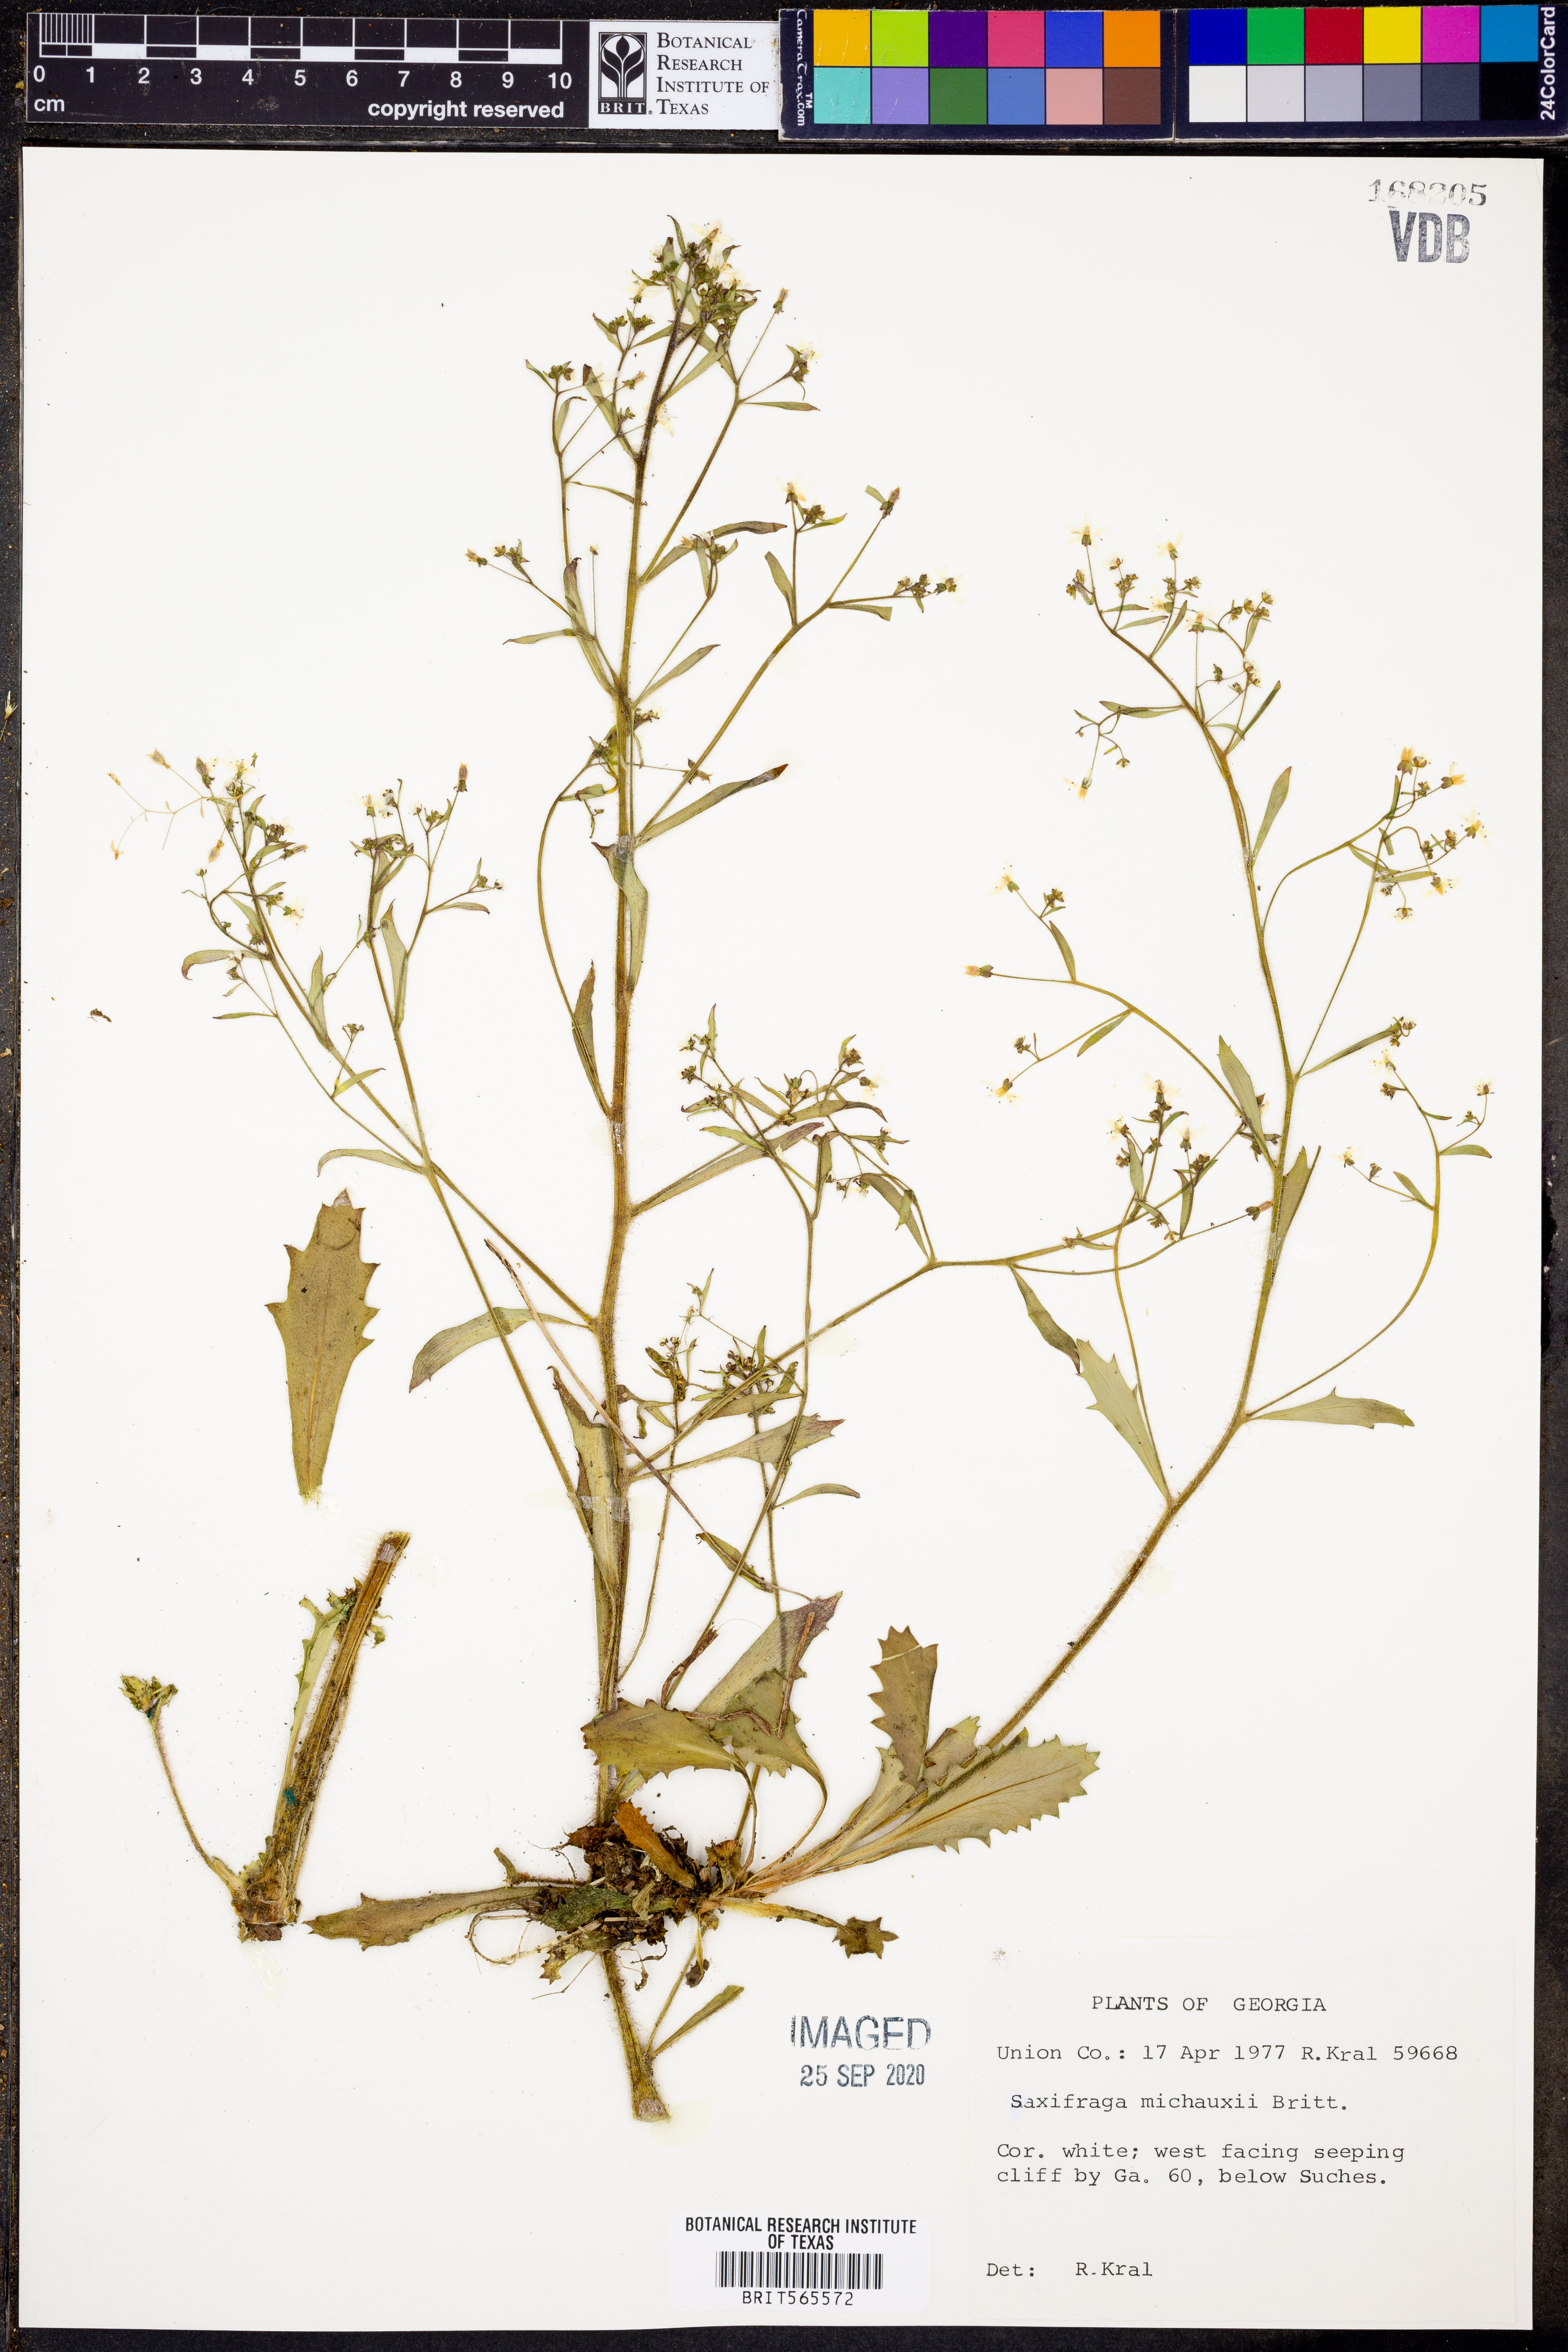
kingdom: Plantae
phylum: Tracheophyta
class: Magnoliopsida
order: Saxifragales
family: Saxifragaceae
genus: Micranthes
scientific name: Micranthes petiolaris
